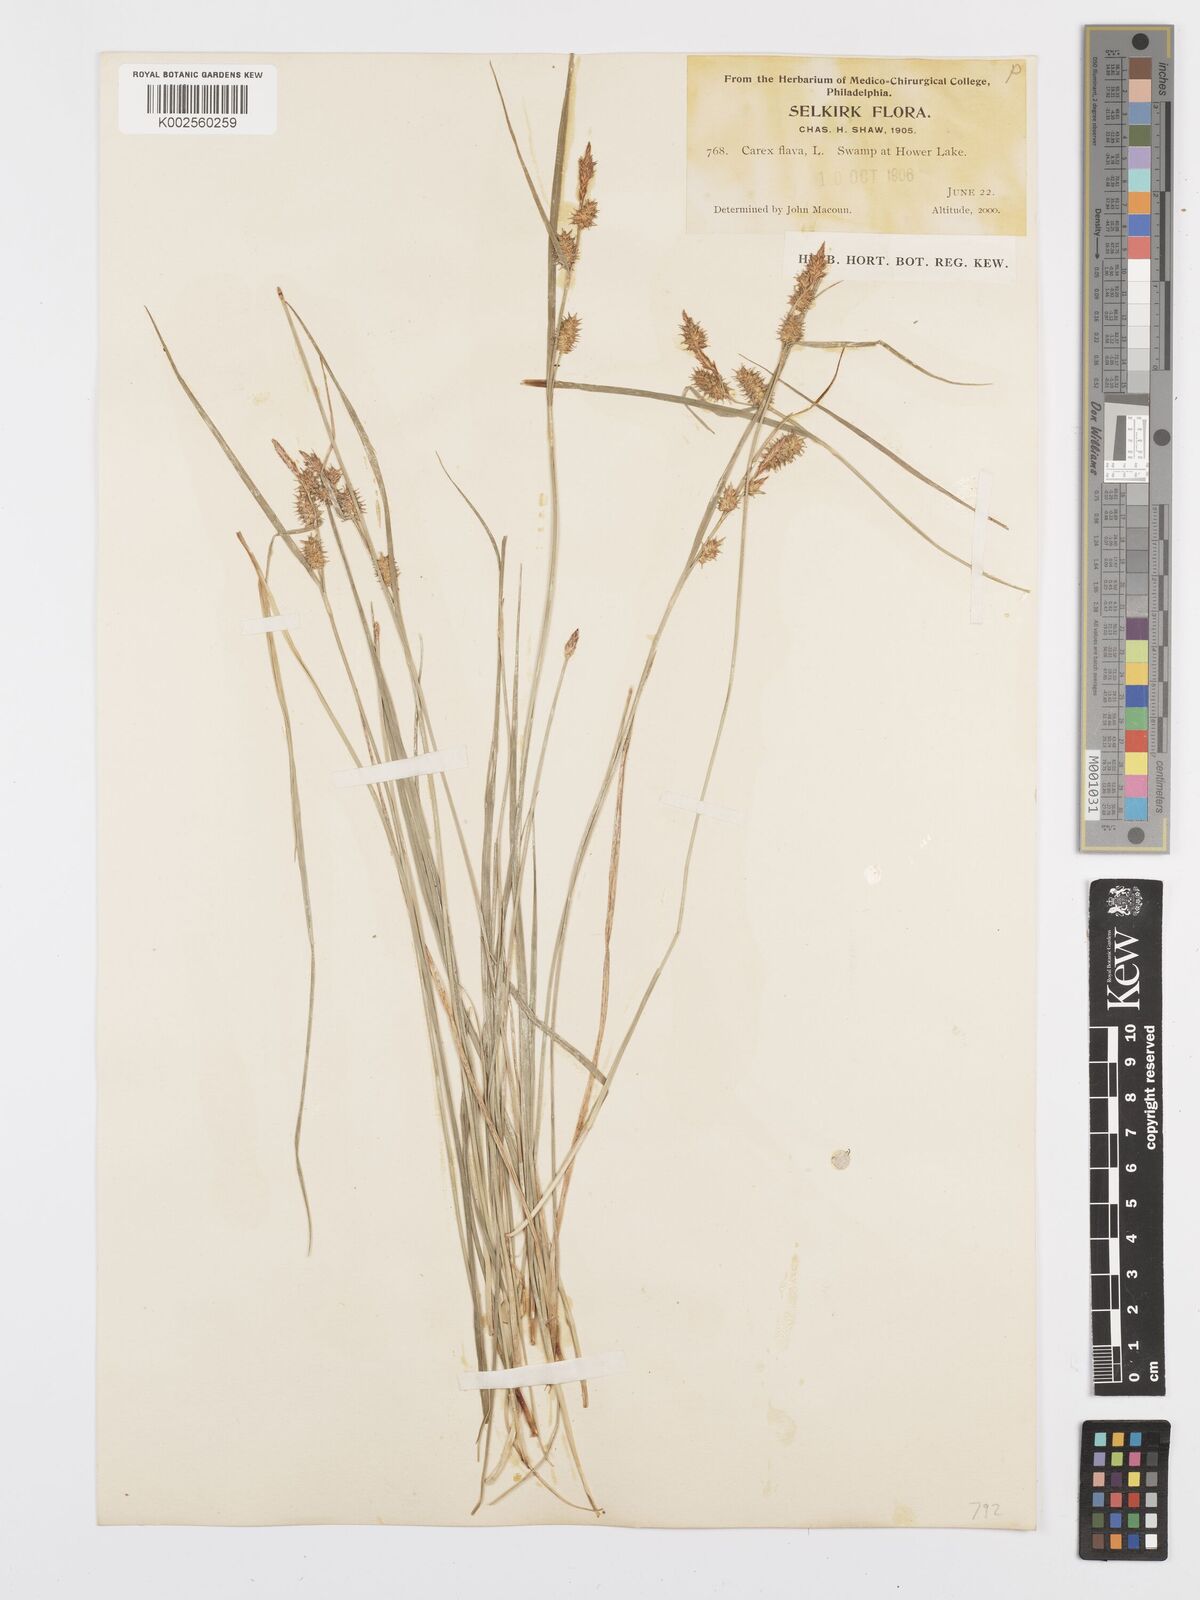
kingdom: Plantae
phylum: Tracheophyta
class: Liliopsida
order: Poales
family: Cyperaceae
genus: Carex
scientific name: Carex flava
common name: Large yellow-sedge
